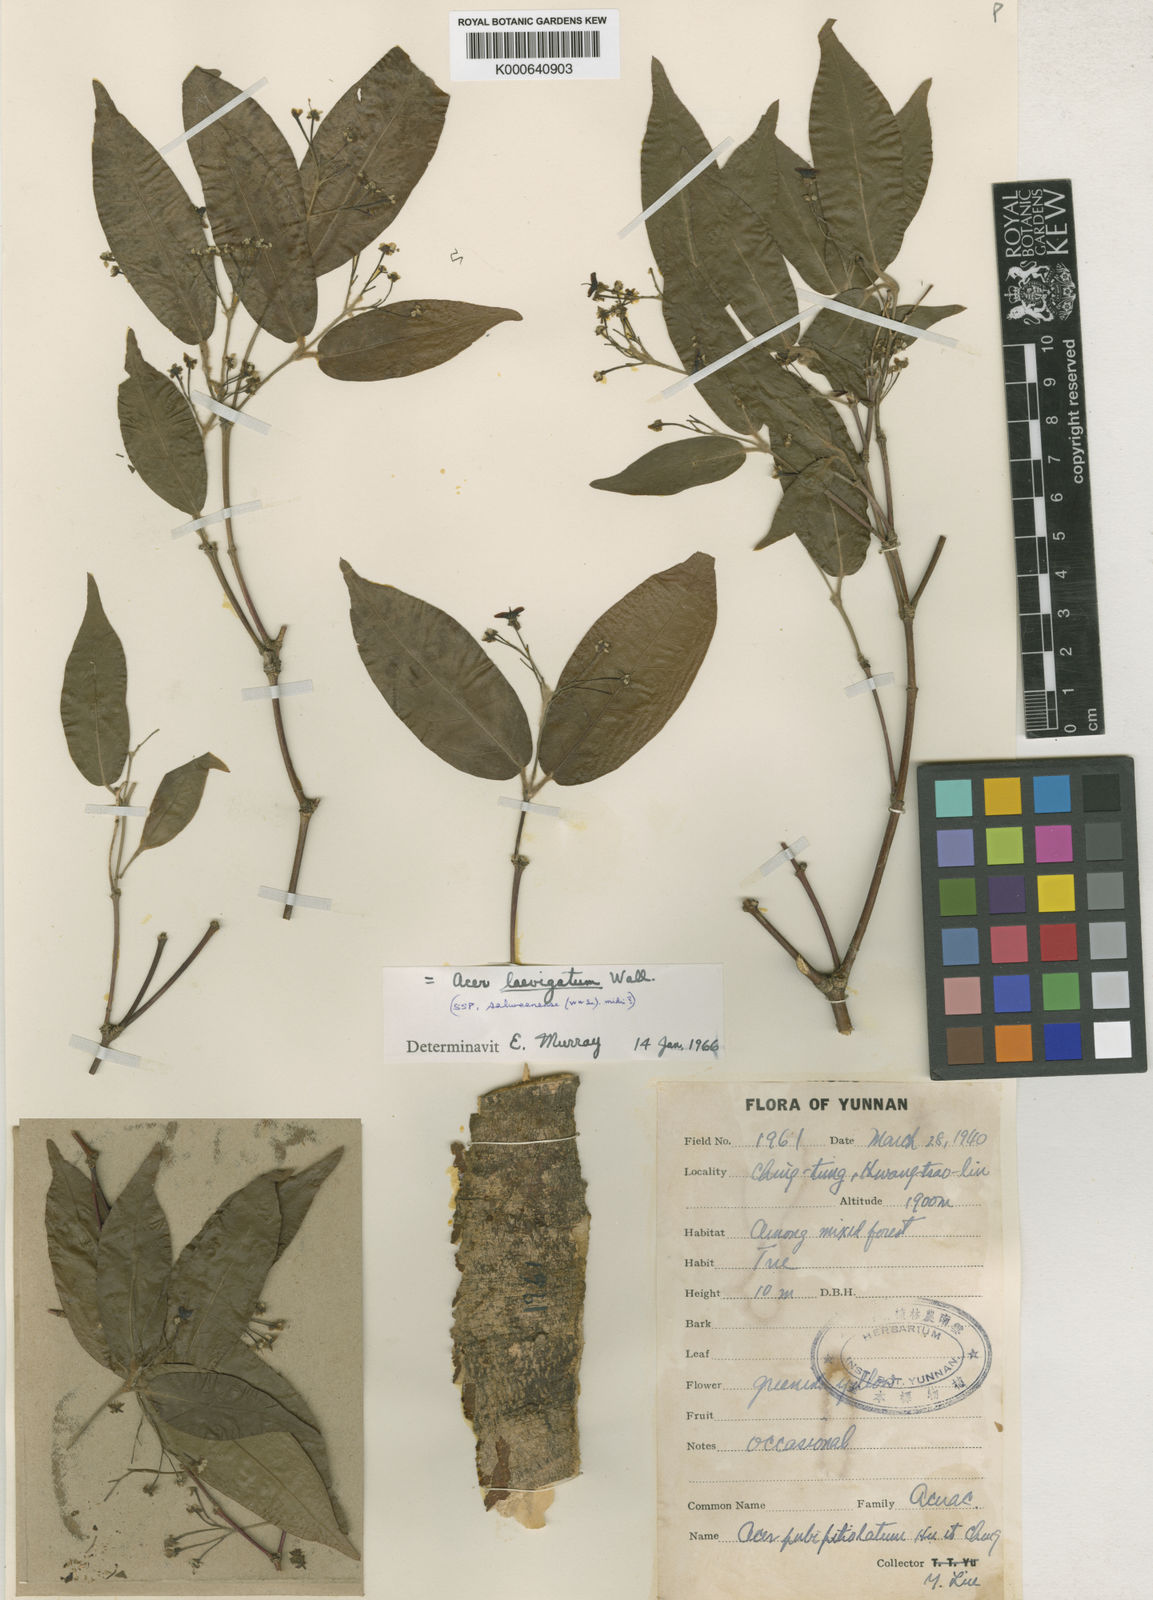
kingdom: Plantae
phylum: Tracheophyta
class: Magnoliopsida
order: Sapindales
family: Sapindaceae
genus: Acer
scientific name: Acer laevigatum
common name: Nepal maple
